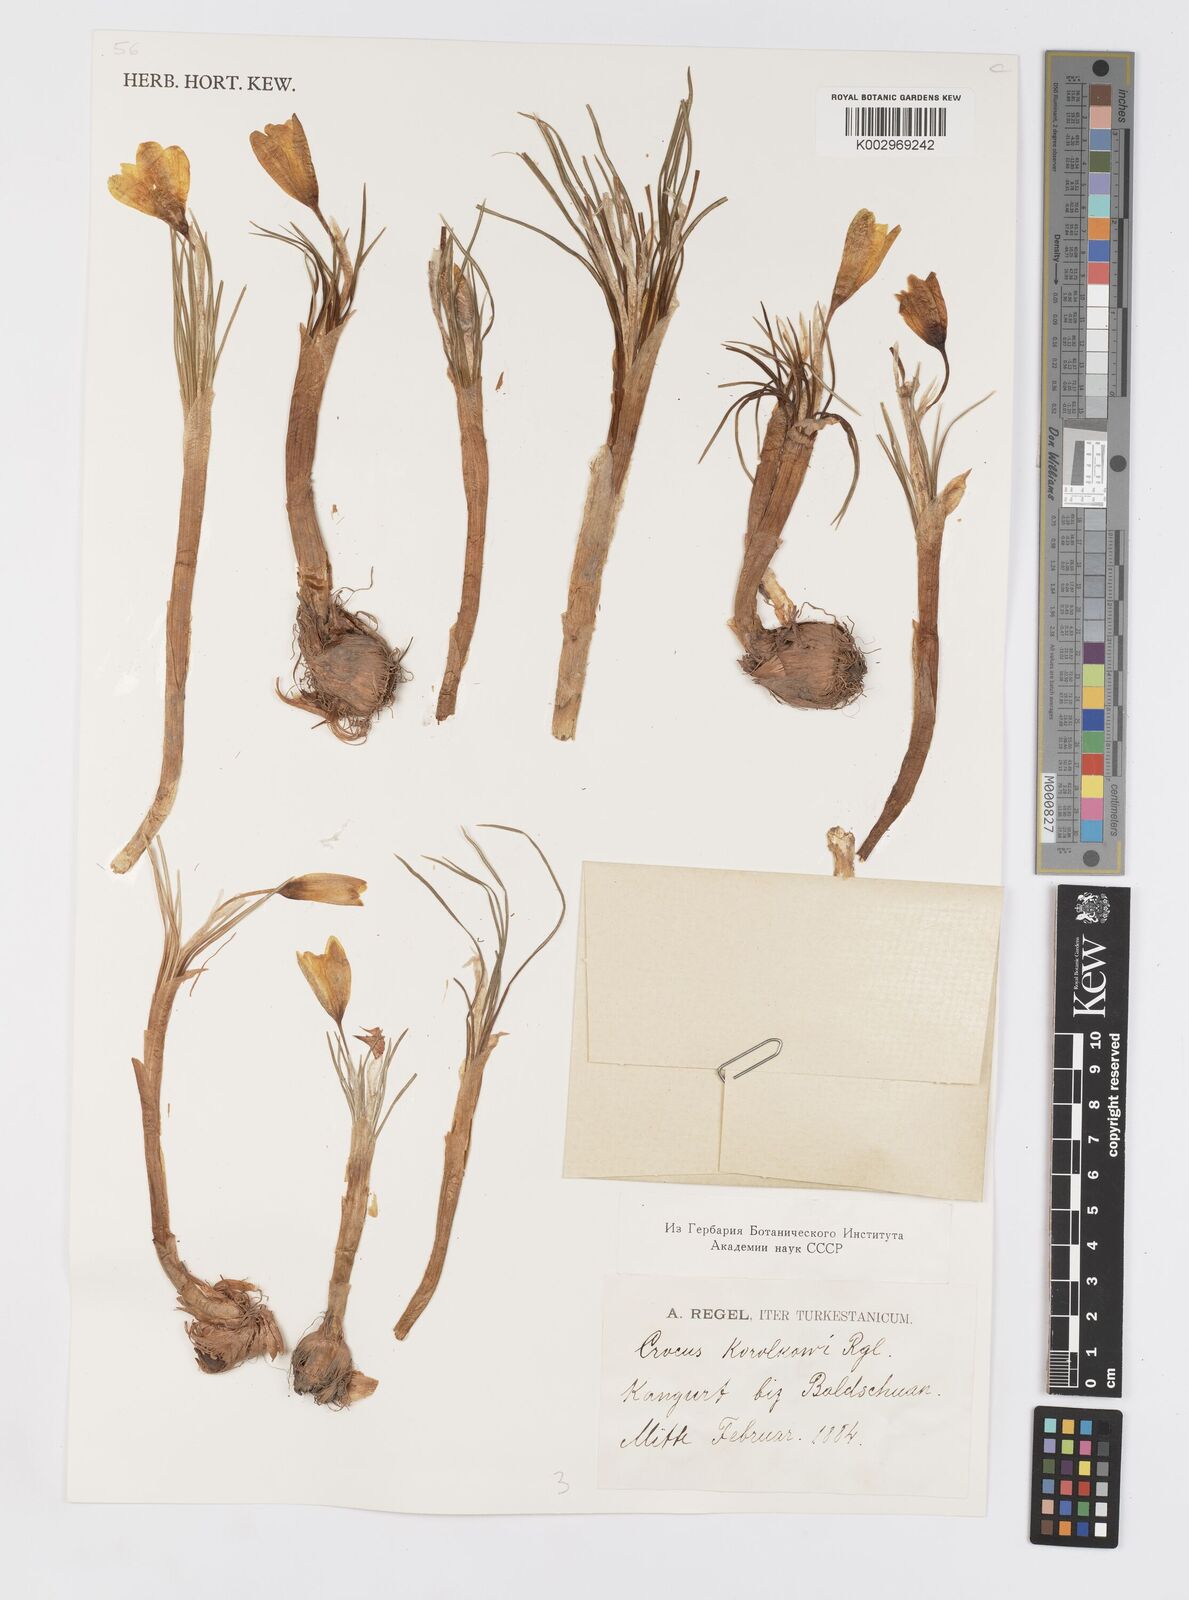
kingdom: Plantae
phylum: Tracheophyta
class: Liliopsida
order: Asparagales
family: Iridaceae
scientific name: Iridaceae
